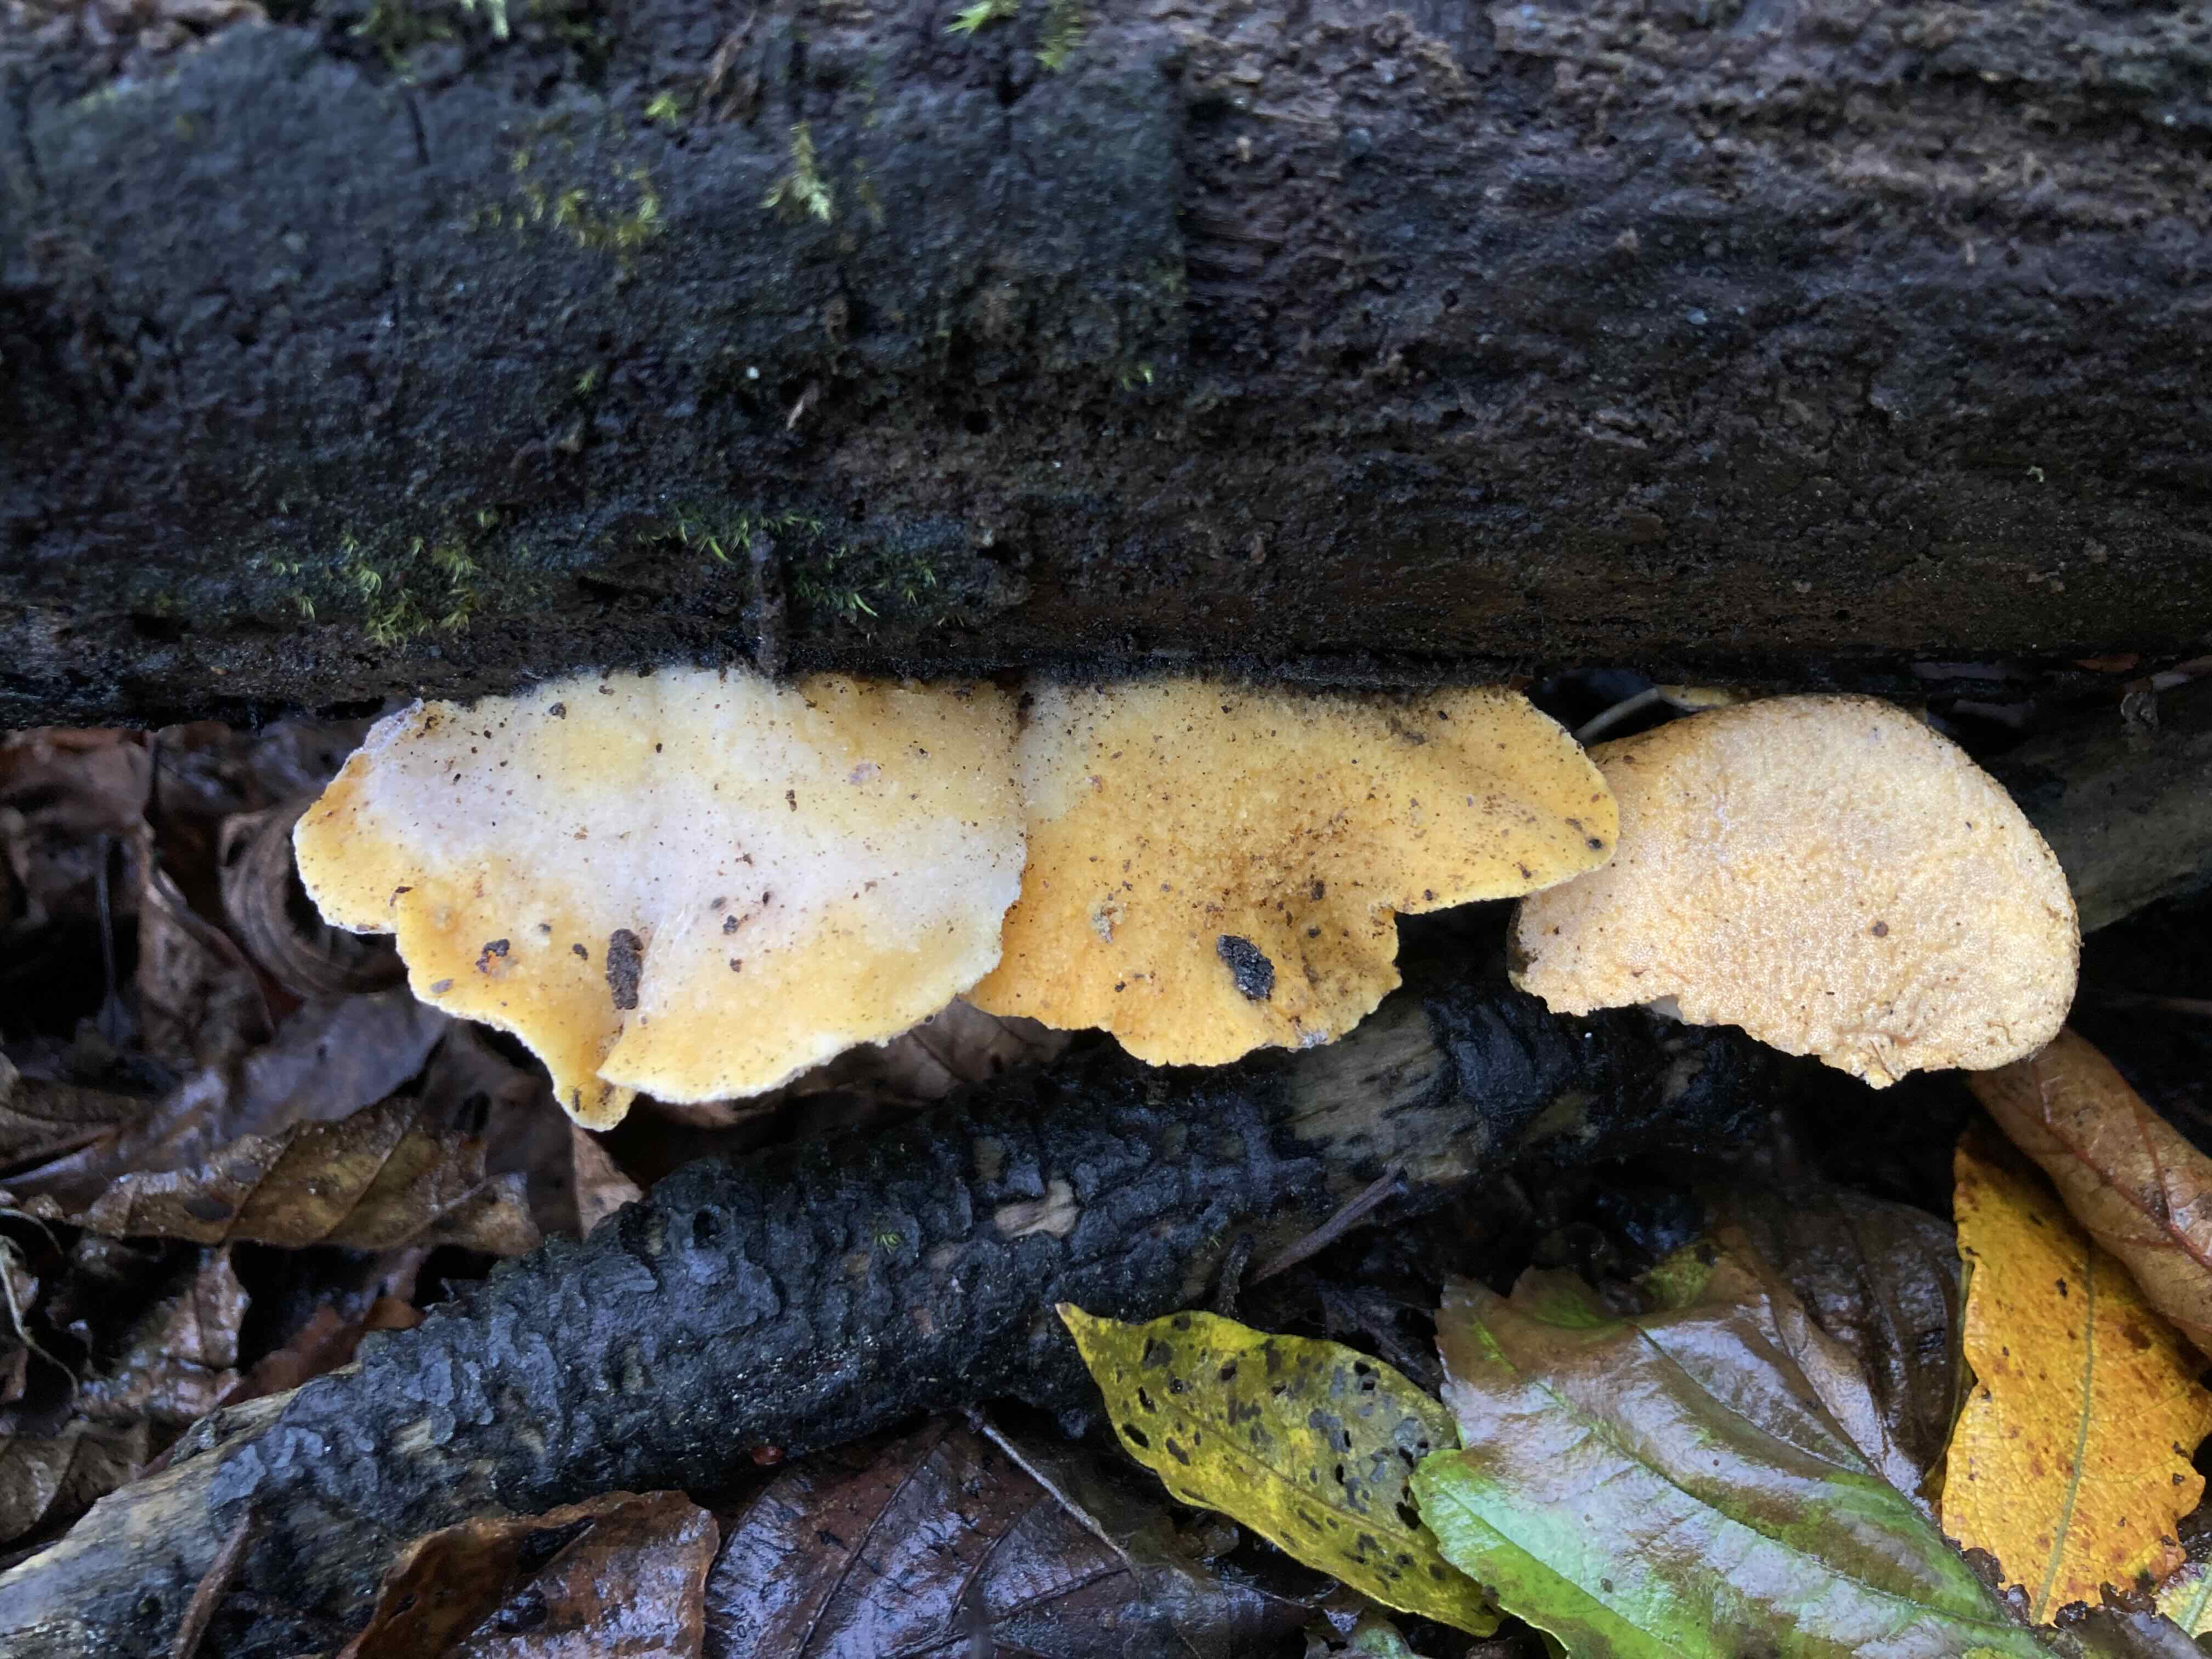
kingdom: Fungi
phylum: Ascomycota
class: Sordariomycetes
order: Hypocreales
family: Hypocreaceae
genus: Protocrea
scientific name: Protocrea pallida
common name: bleg kødkerne
